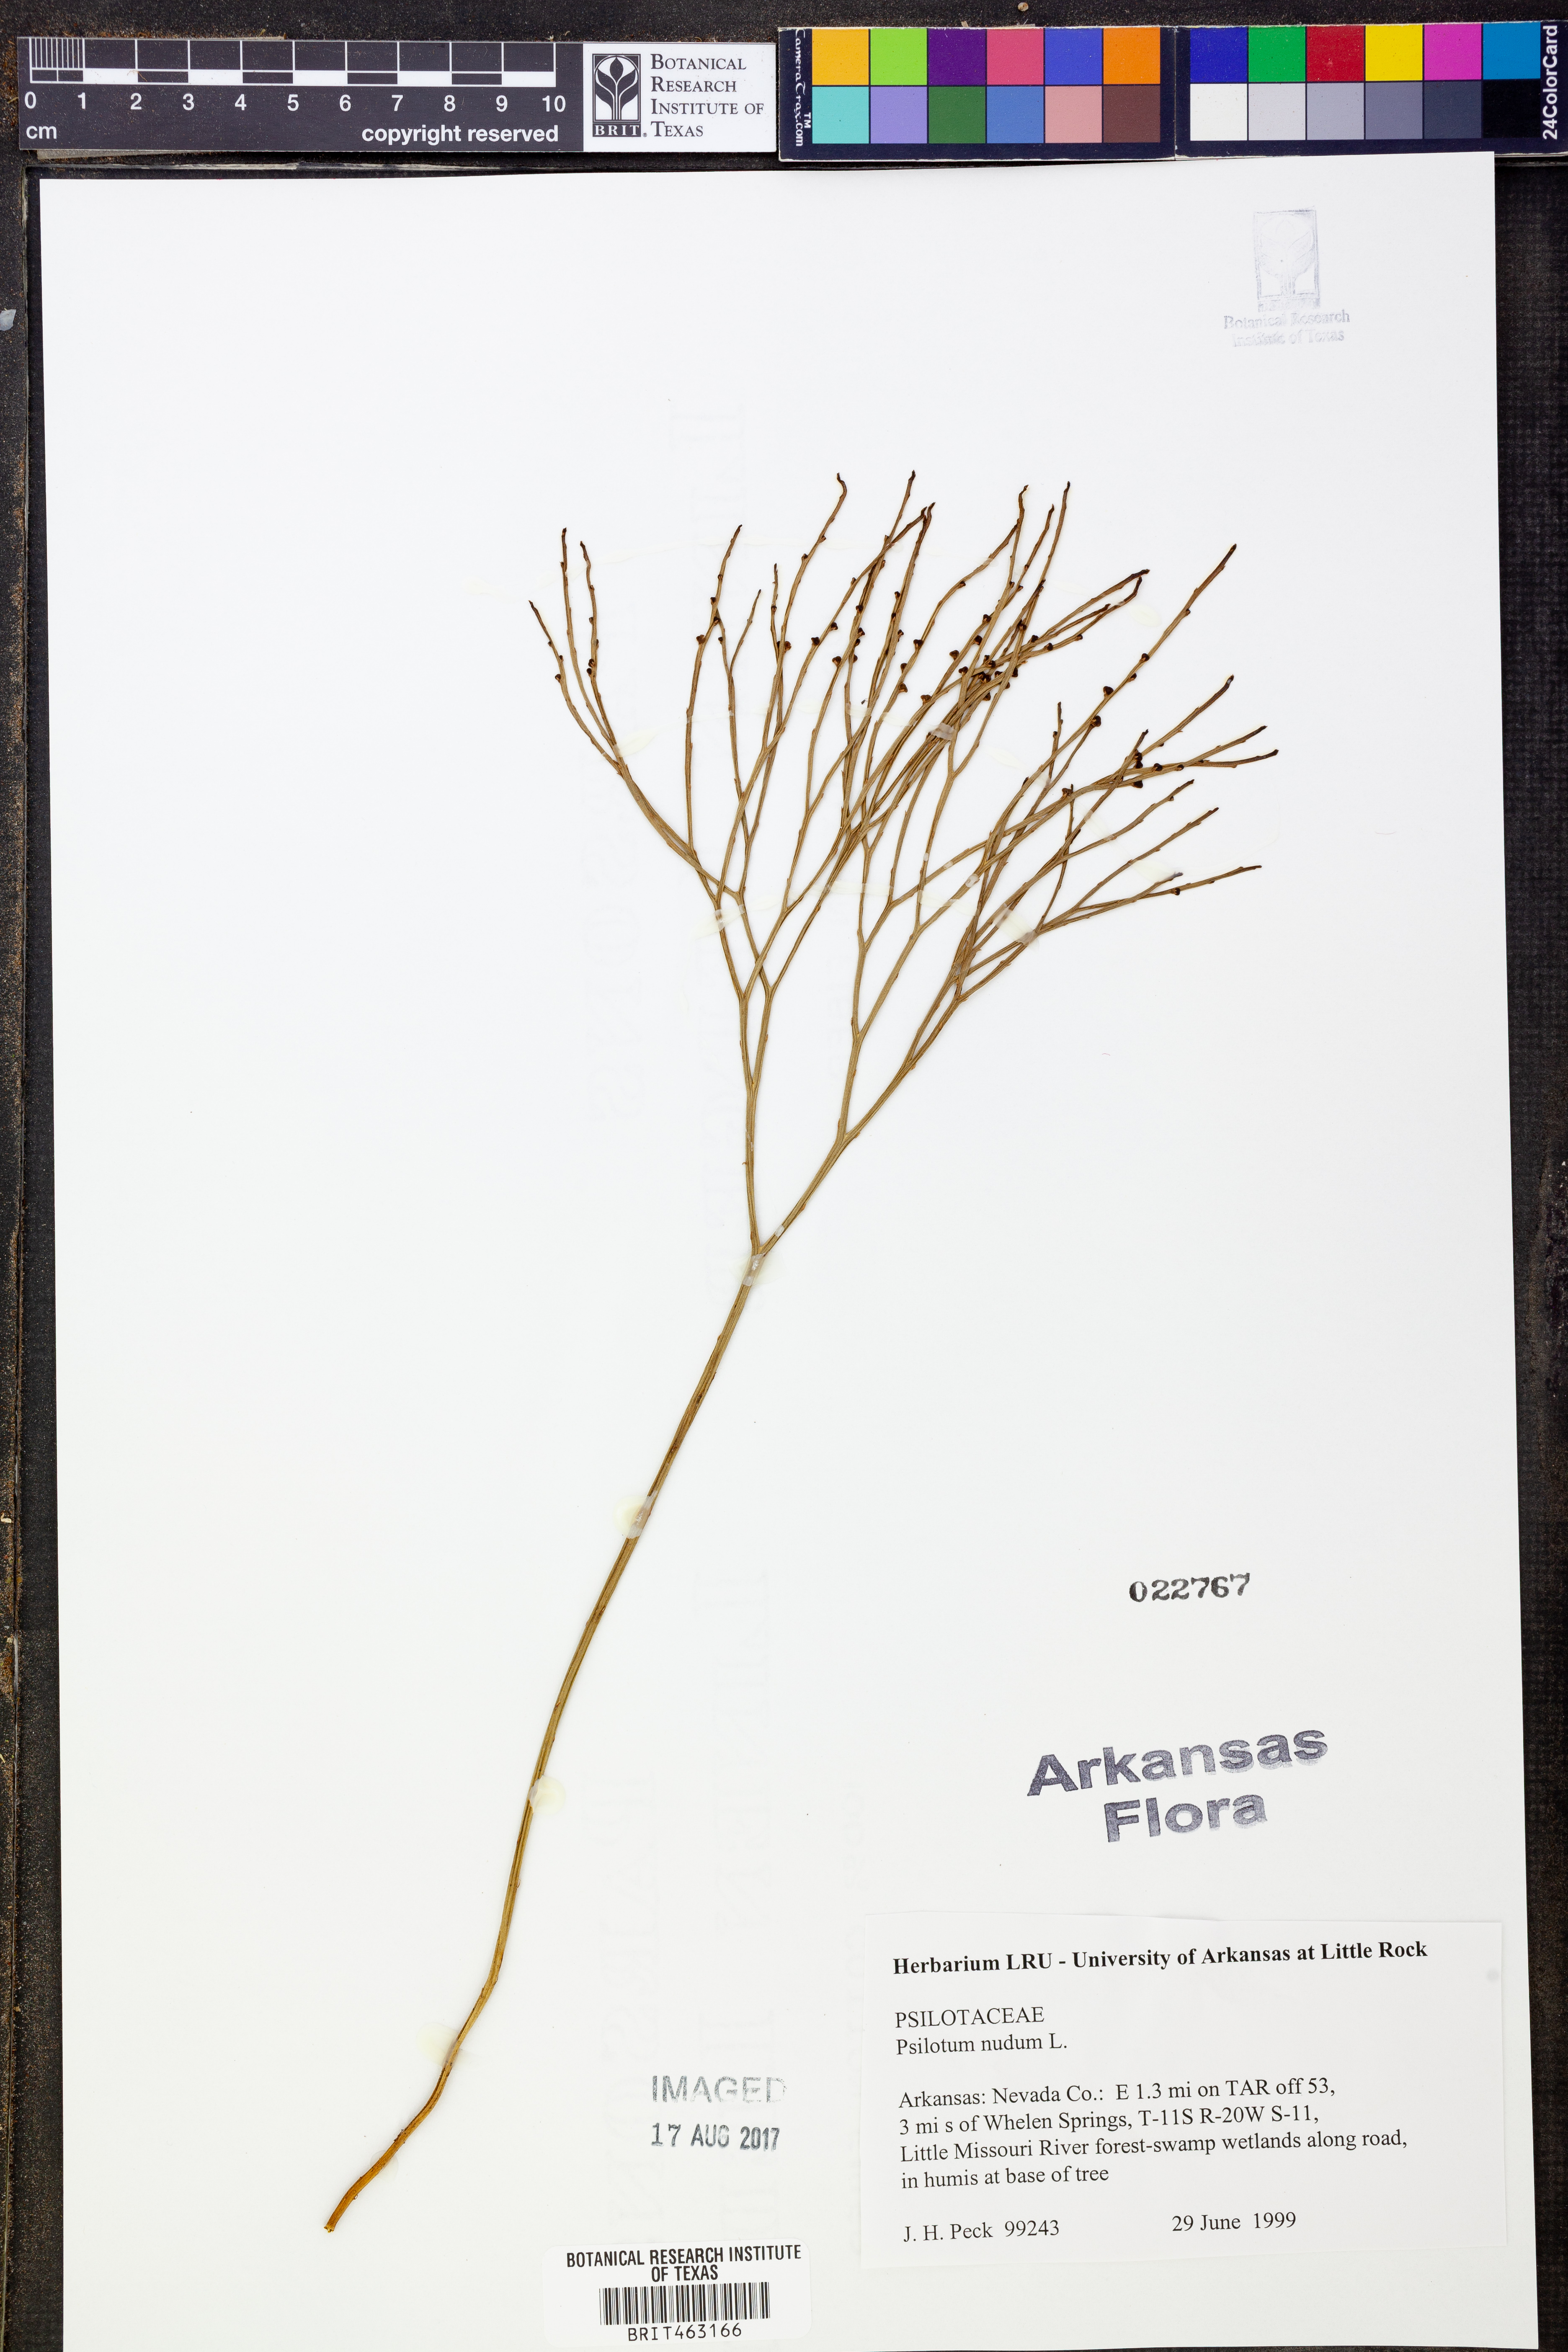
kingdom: Plantae
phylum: Tracheophyta
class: Polypodiopsida
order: Psilotales
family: Psilotaceae
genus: Psilotum
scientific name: Psilotum nudum
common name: Skeleton fork fern
